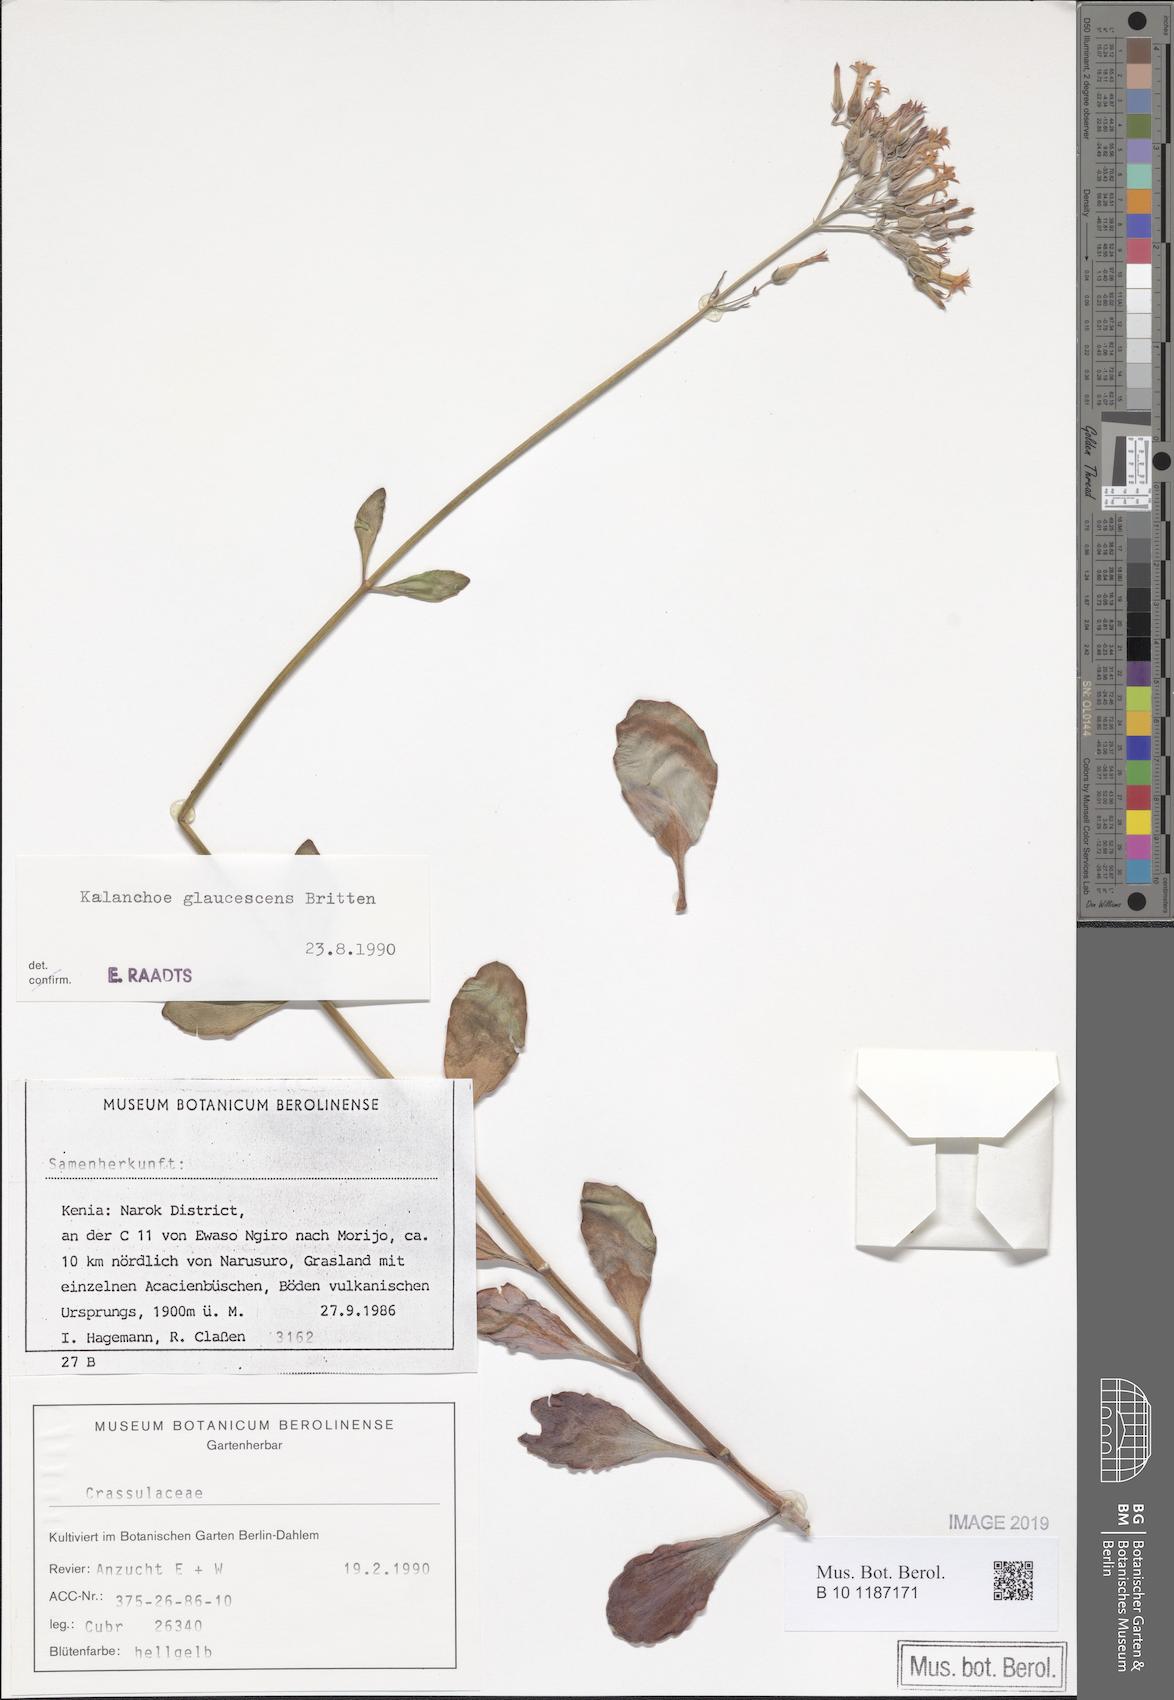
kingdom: Plantae
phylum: Tracheophyta
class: Magnoliopsida
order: Saxifragales
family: Crassulaceae
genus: Kalanchoe
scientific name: Kalanchoe glaucescens
